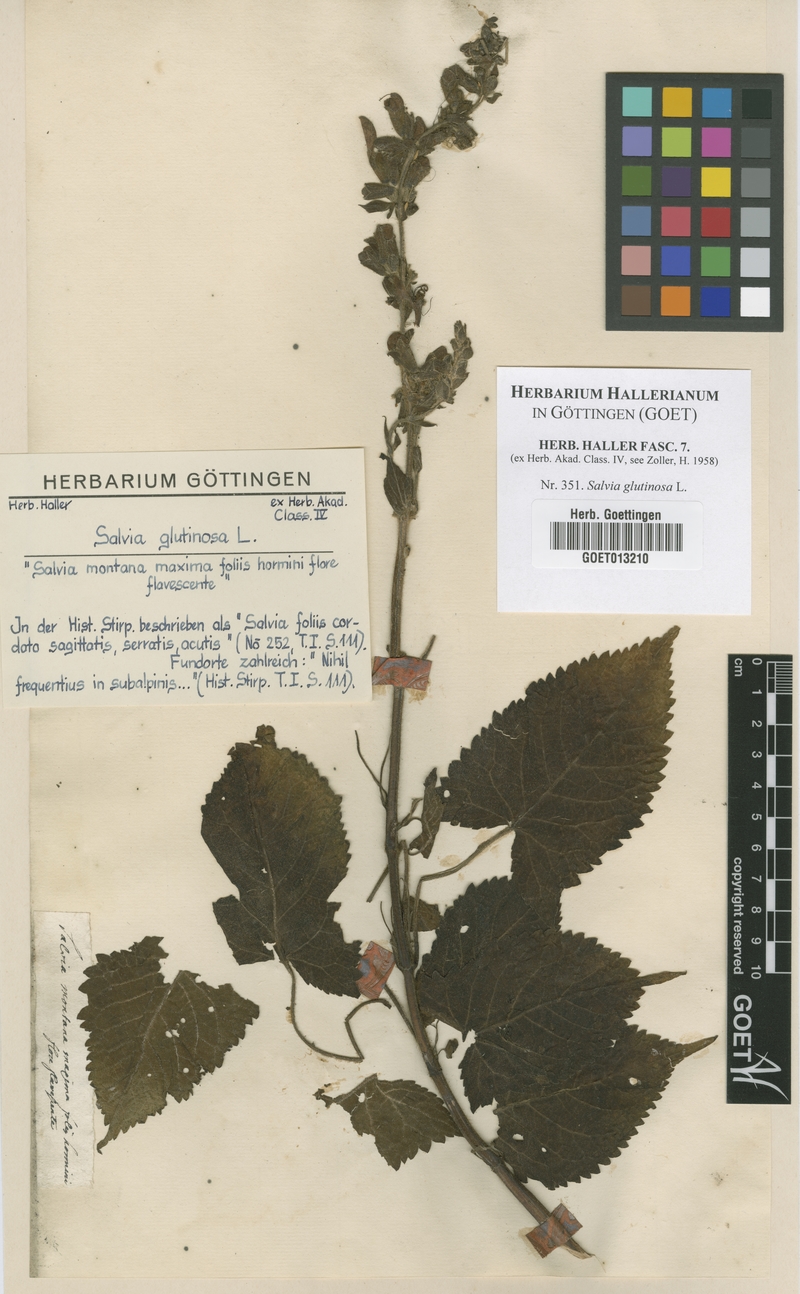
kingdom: Plantae
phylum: Tracheophyta
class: Magnoliopsida
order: Lamiales
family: Lamiaceae
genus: Salvia
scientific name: Salvia glutinosa
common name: Sticky clary
